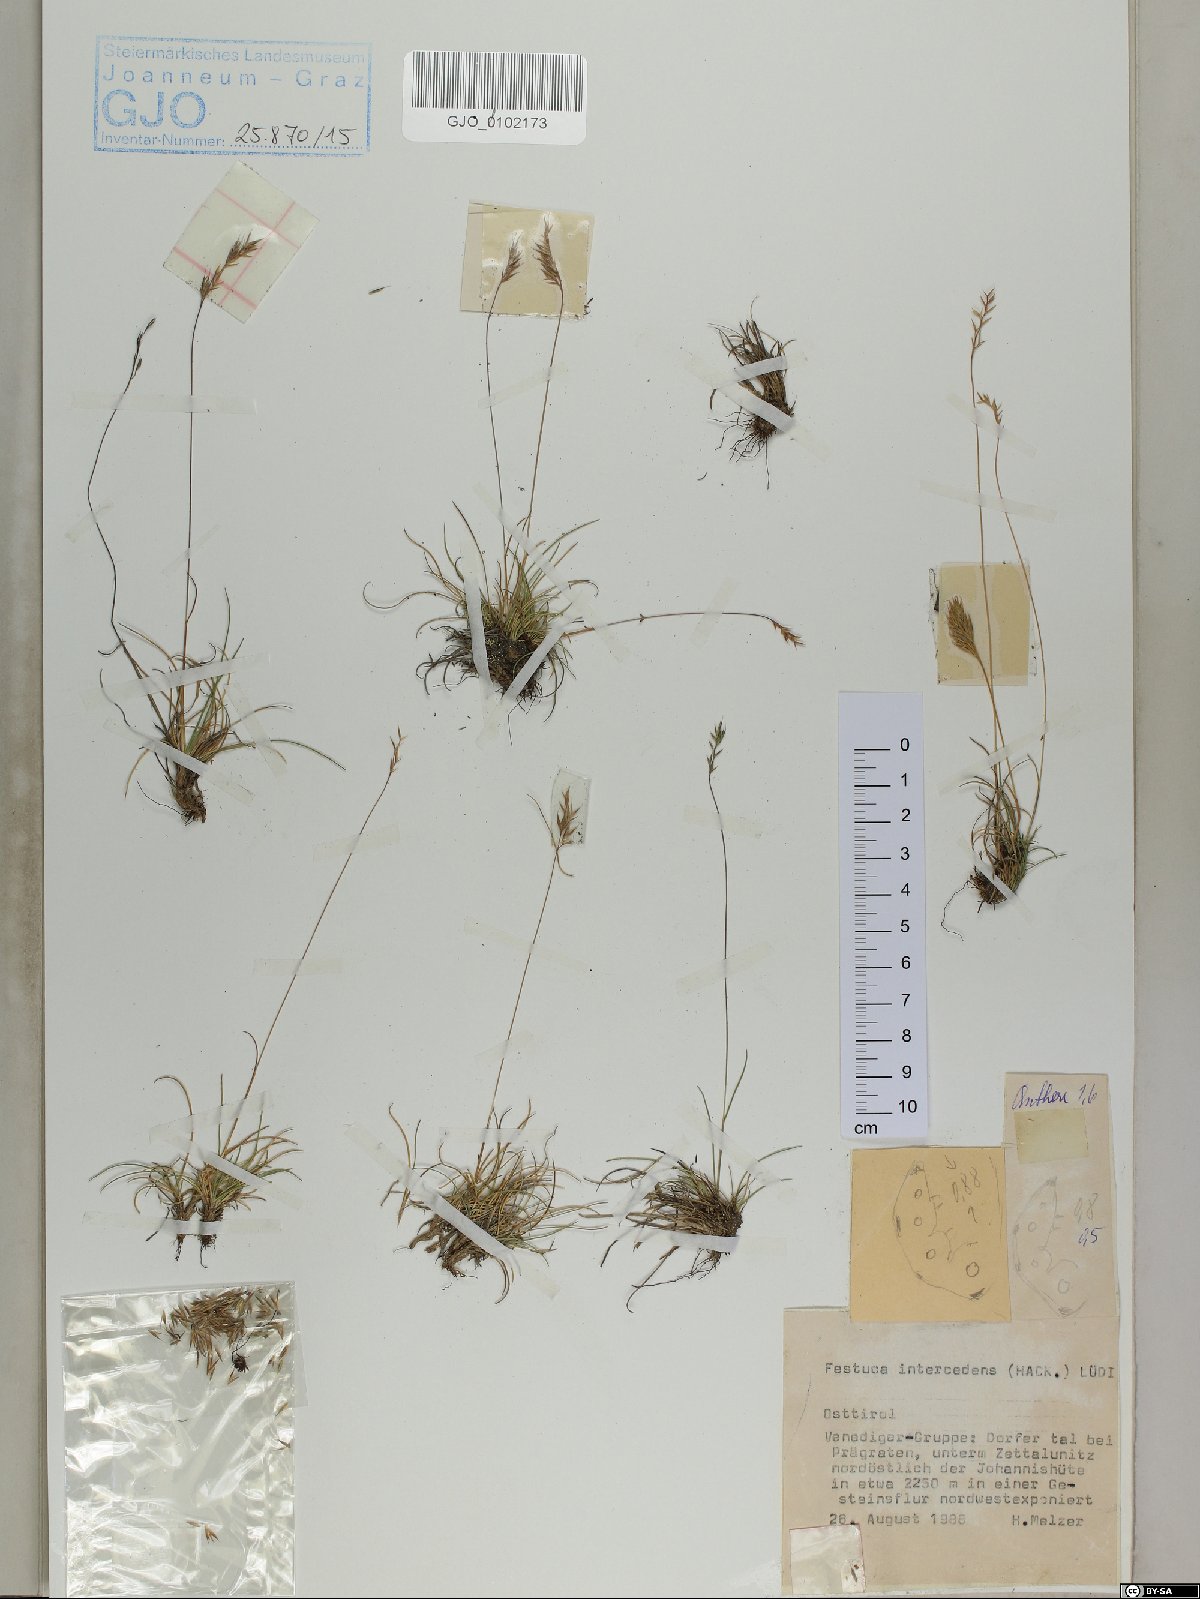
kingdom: Plantae
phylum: Tracheophyta
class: Liliopsida
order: Poales
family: Poaceae
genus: Festuca
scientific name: Festuca intercedens
